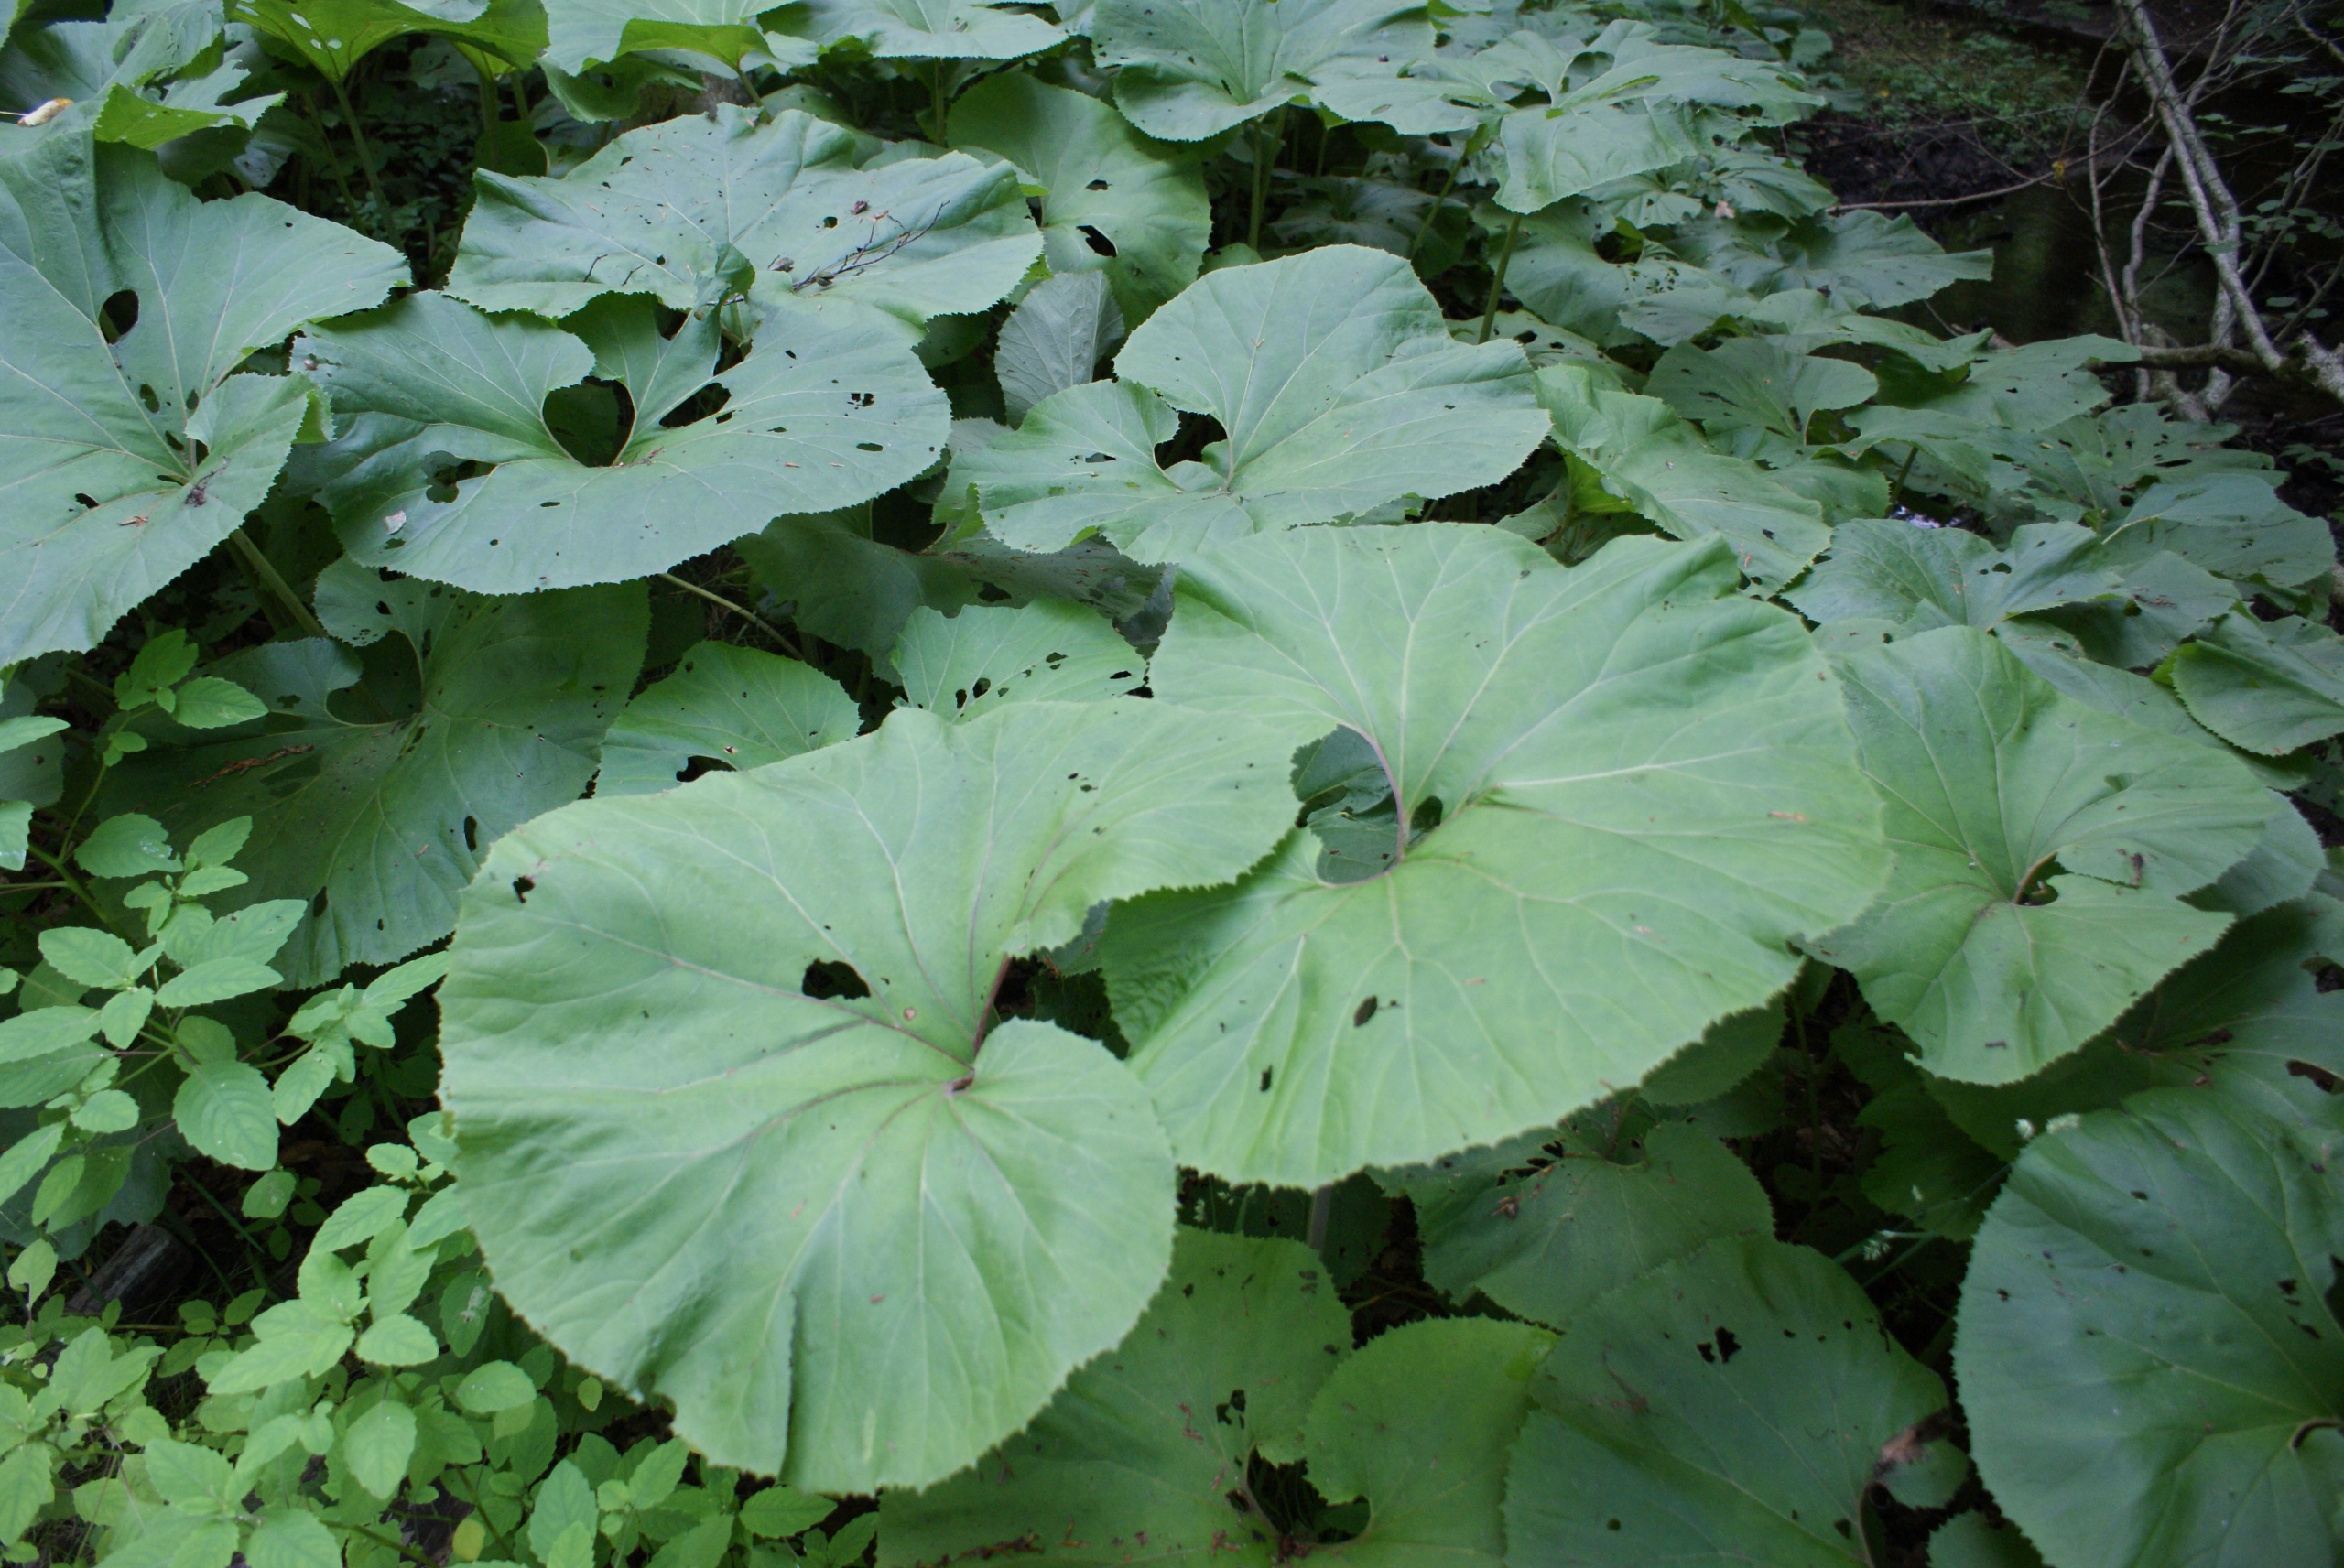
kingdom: Plantae
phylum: Tracheophyta
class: Magnoliopsida
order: Asterales
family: Asteraceae
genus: Petasites
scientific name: Petasites japonicus
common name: Japansk hestehov
